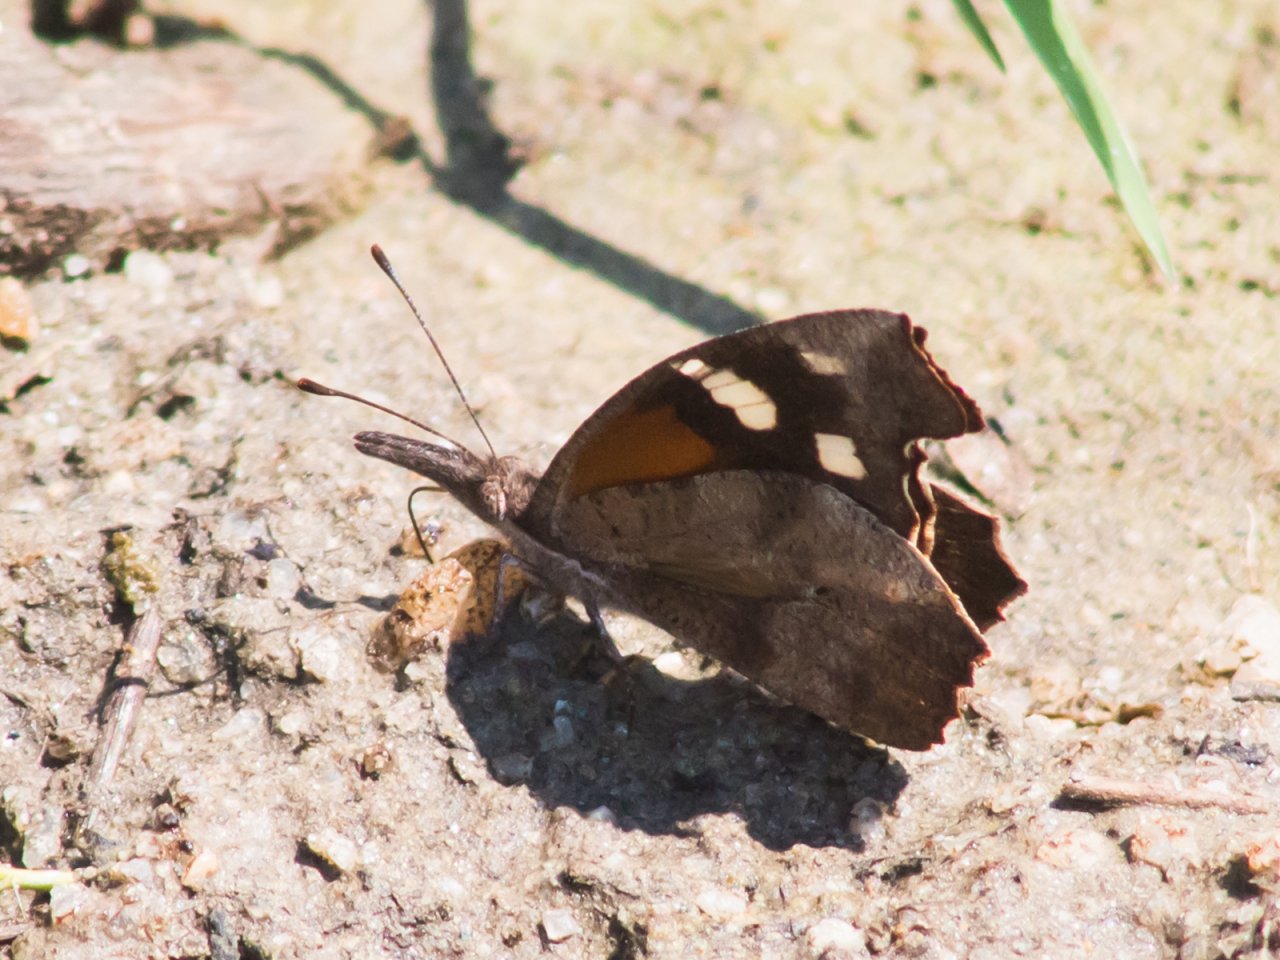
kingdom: Animalia
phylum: Arthropoda
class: Insecta
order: Lepidoptera
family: Nymphalidae
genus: Libytheana
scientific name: Libytheana carinenta
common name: American Snout
